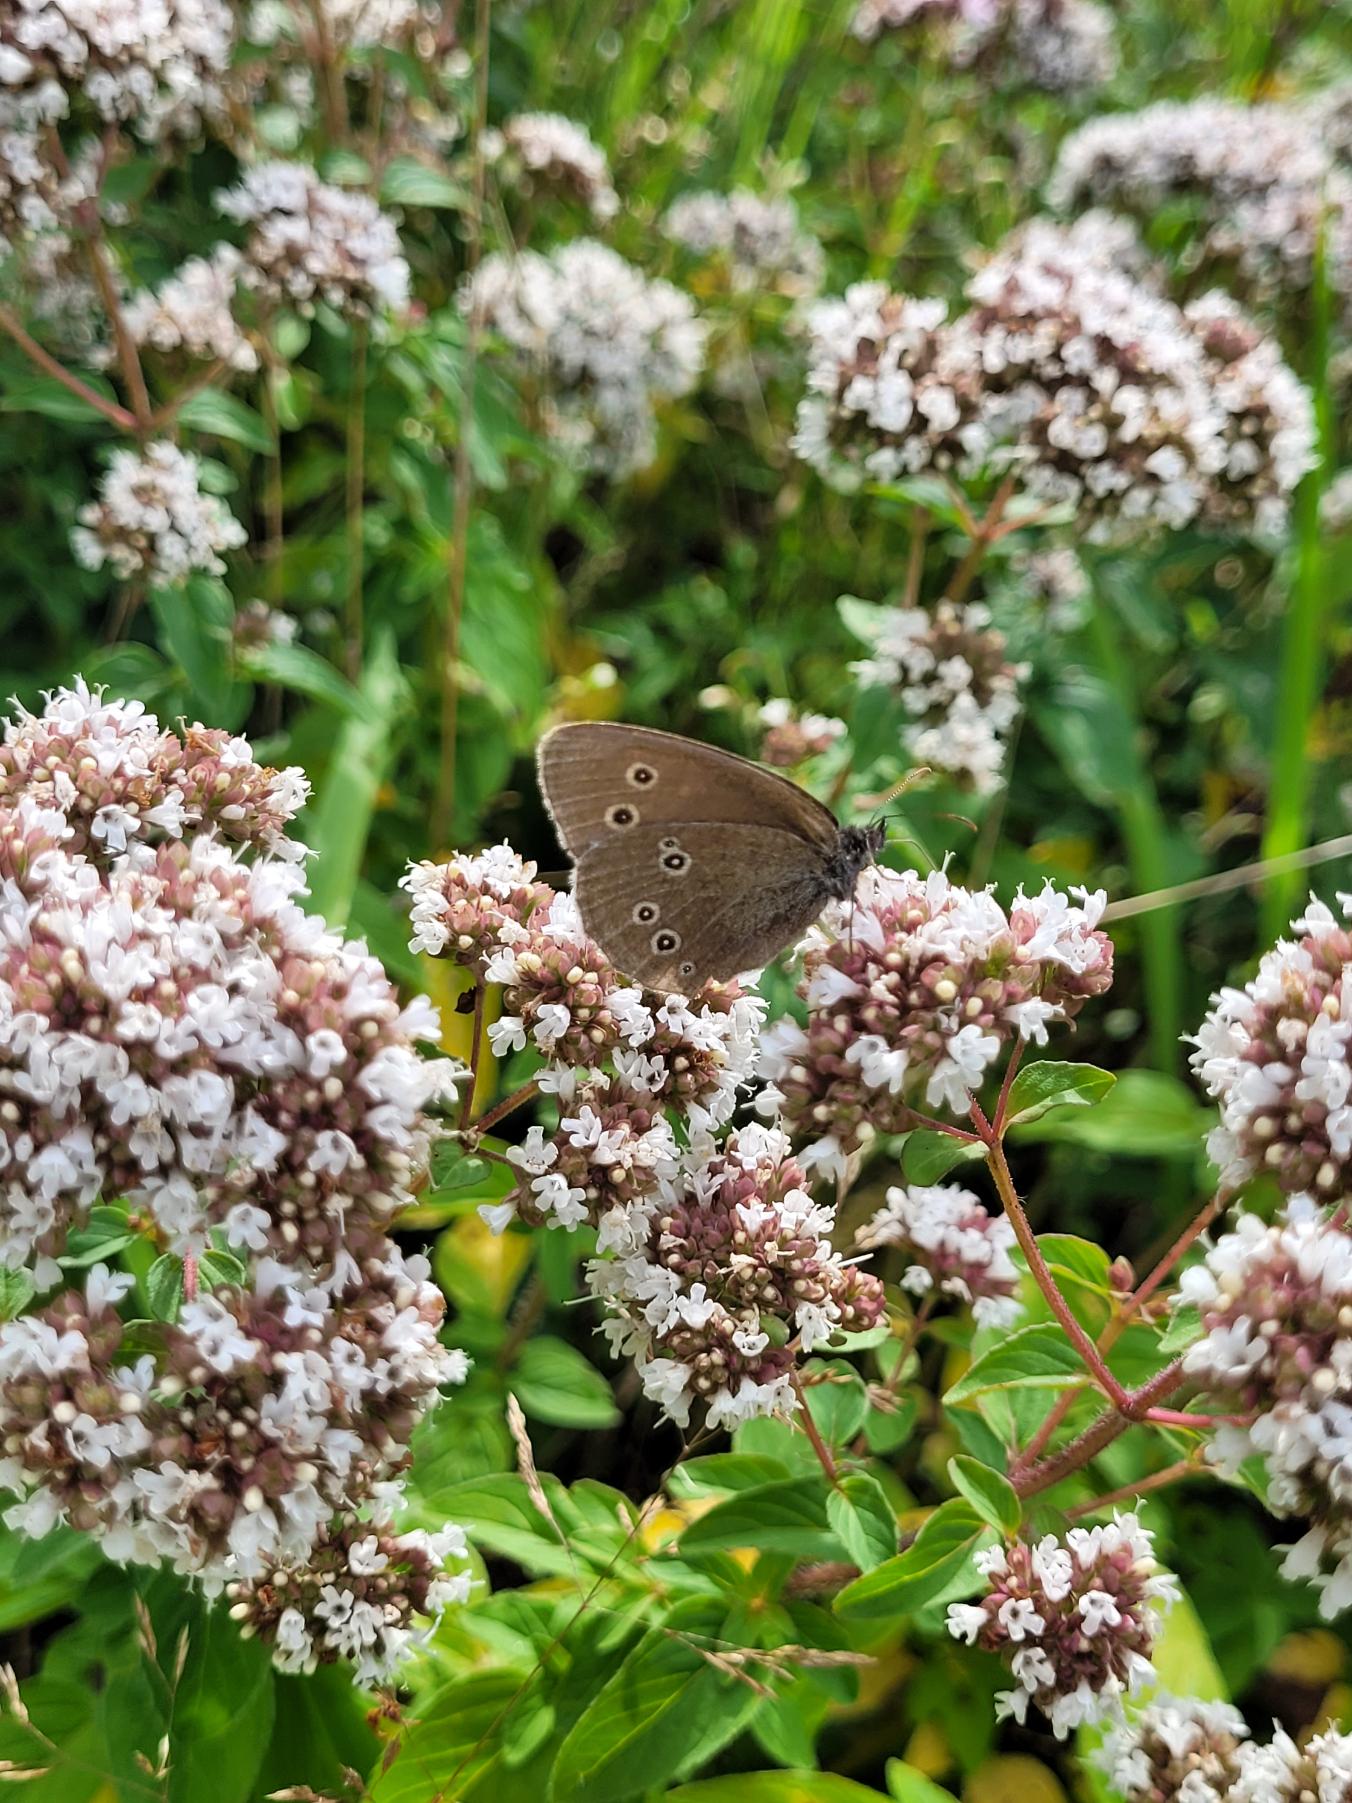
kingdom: Animalia
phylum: Arthropoda
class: Insecta
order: Lepidoptera
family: Nymphalidae
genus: Aphantopus
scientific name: Aphantopus hyperantus
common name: Engrandøje
